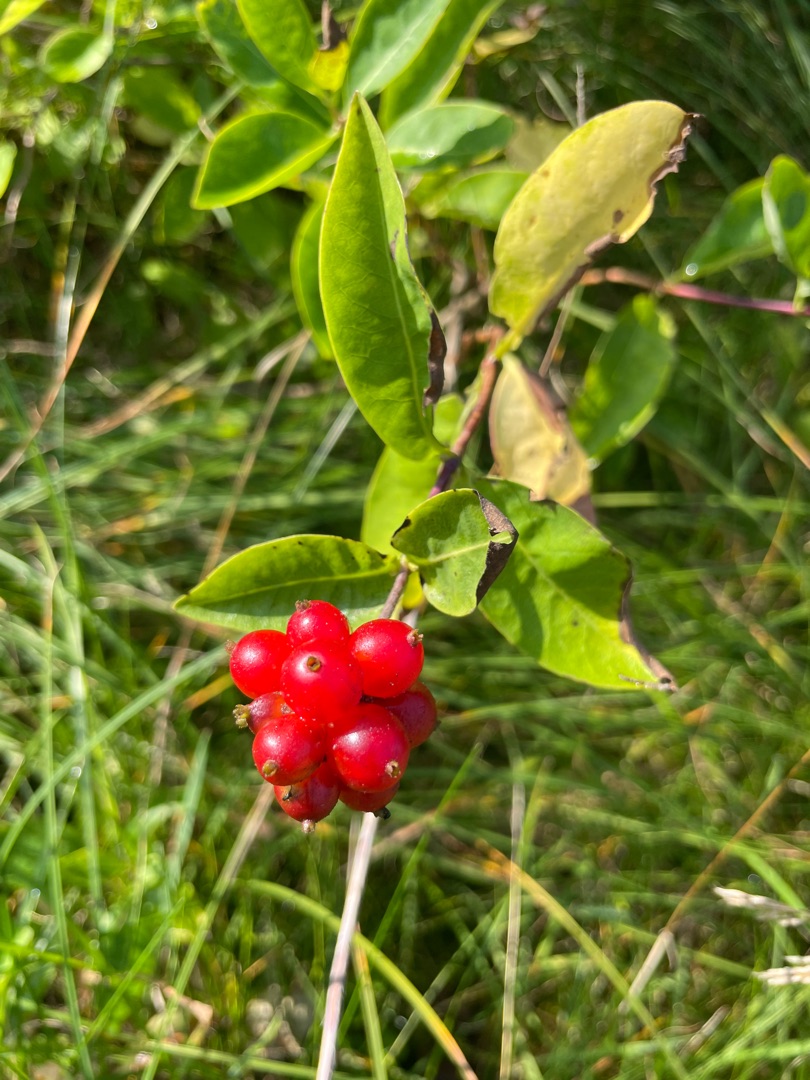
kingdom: Plantae
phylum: Tracheophyta
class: Magnoliopsida
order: Dipsacales
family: Caprifoliaceae
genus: Lonicera
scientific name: Lonicera periclymenum
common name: Almindelig gedeblad
